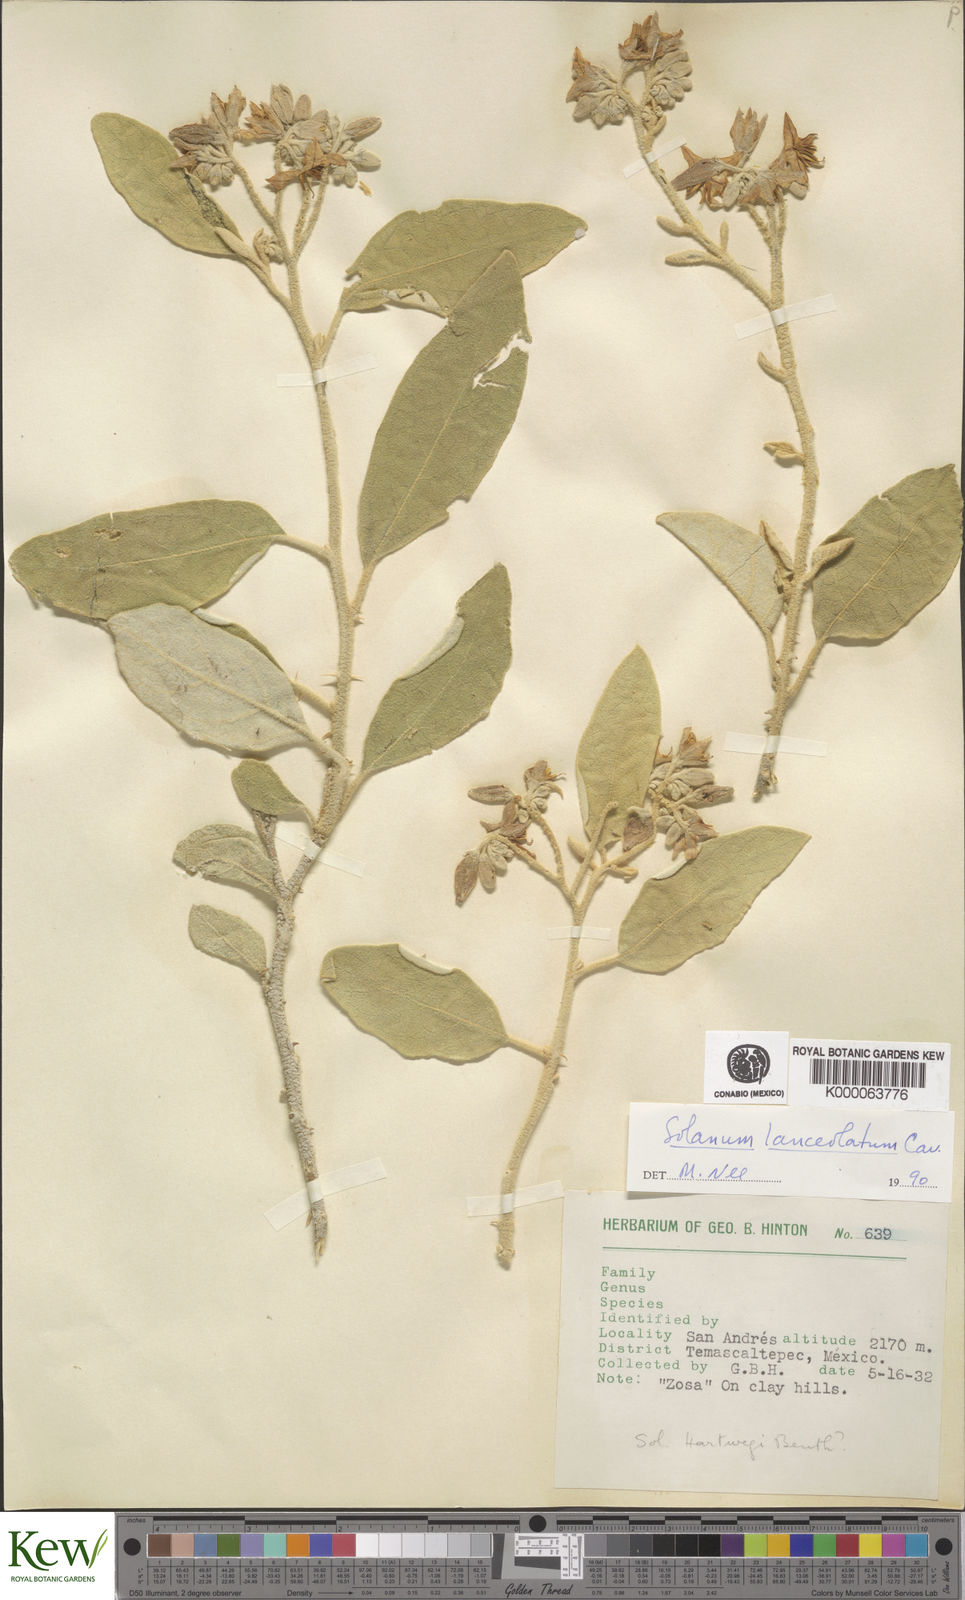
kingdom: Plantae
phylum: Tracheophyta
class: Magnoliopsida
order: Solanales
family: Solanaceae
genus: Solanum
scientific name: Solanum lanceolatum
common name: Orangeberry nightshade
